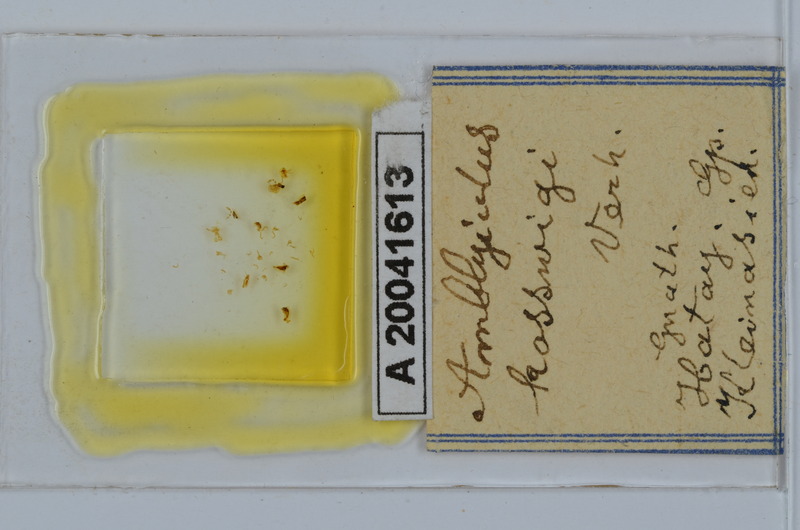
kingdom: Animalia
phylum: Arthropoda
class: Diplopoda
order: Julida
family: Julidae
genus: Amblyiulus
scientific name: Amblyiulus kosswigii
